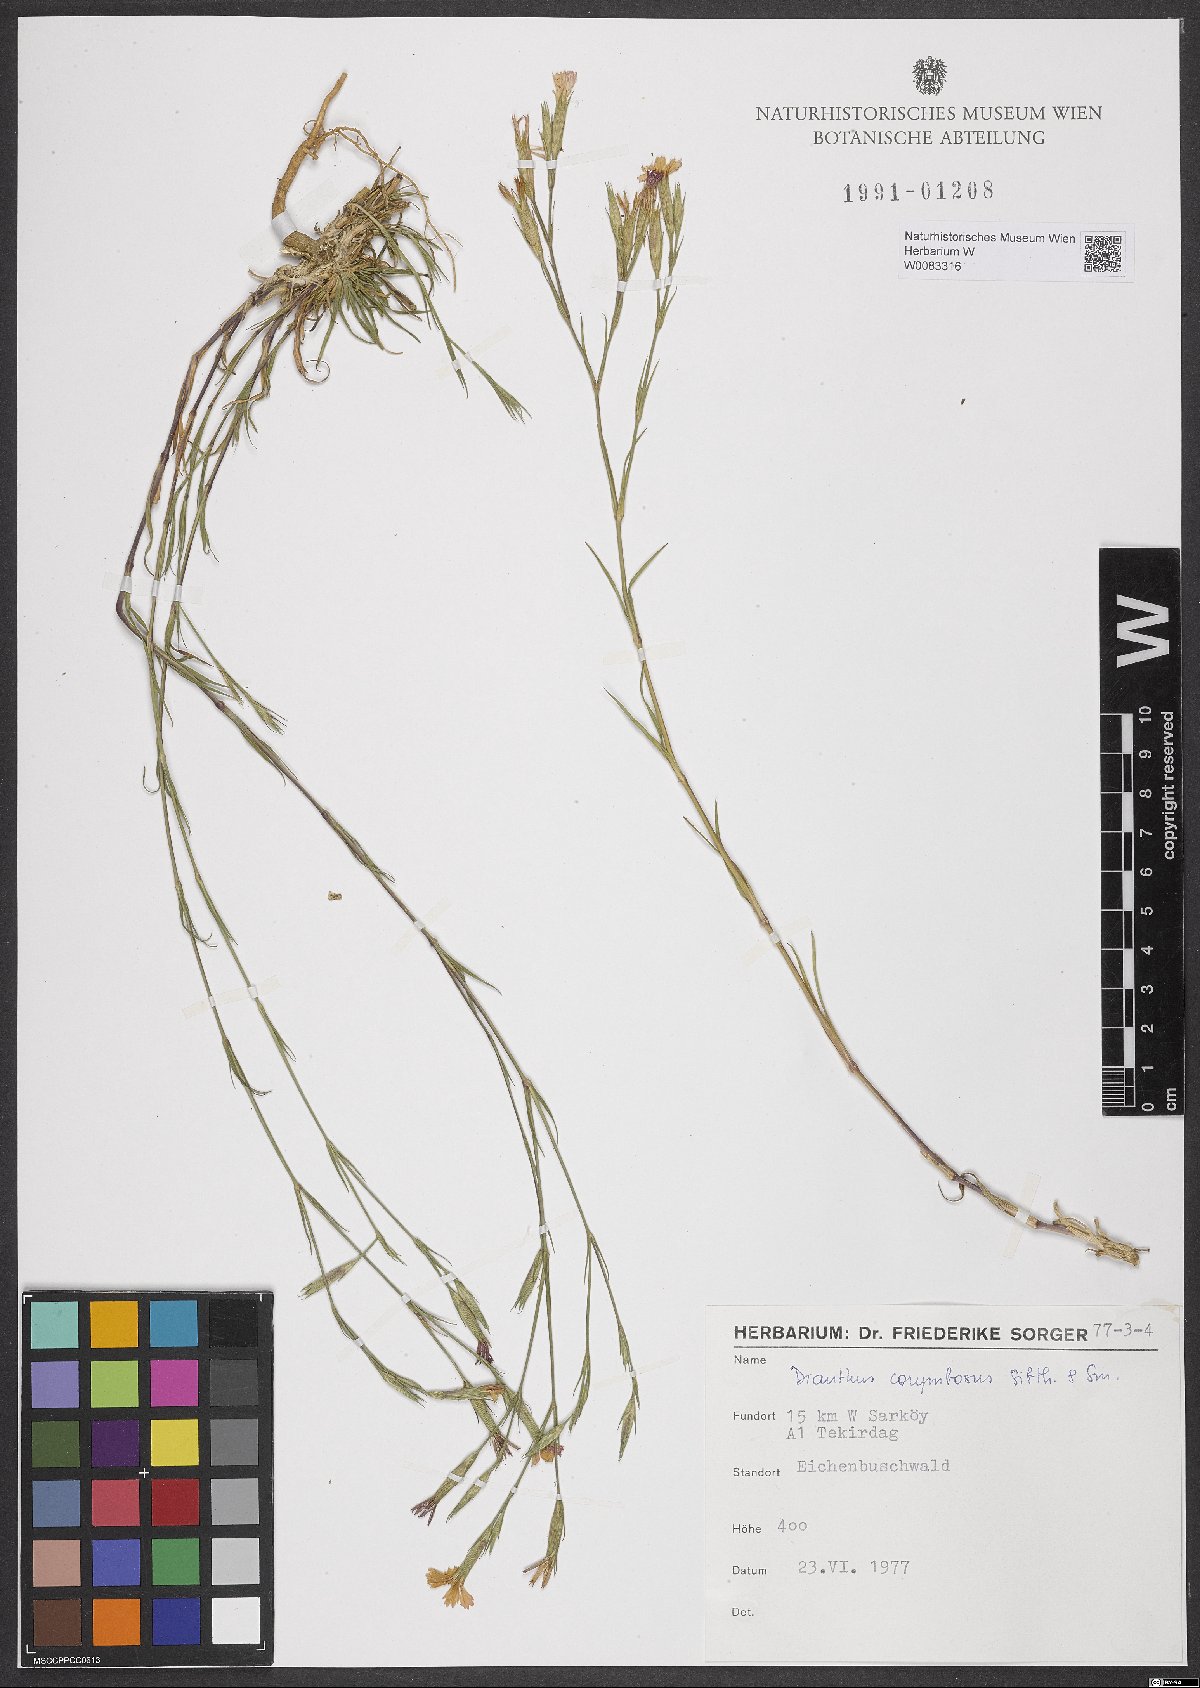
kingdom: Plantae
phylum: Tracheophyta
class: Magnoliopsida
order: Caryophyllales
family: Caryophyllaceae
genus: Dianthus
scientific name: Dianthus corymbosus
